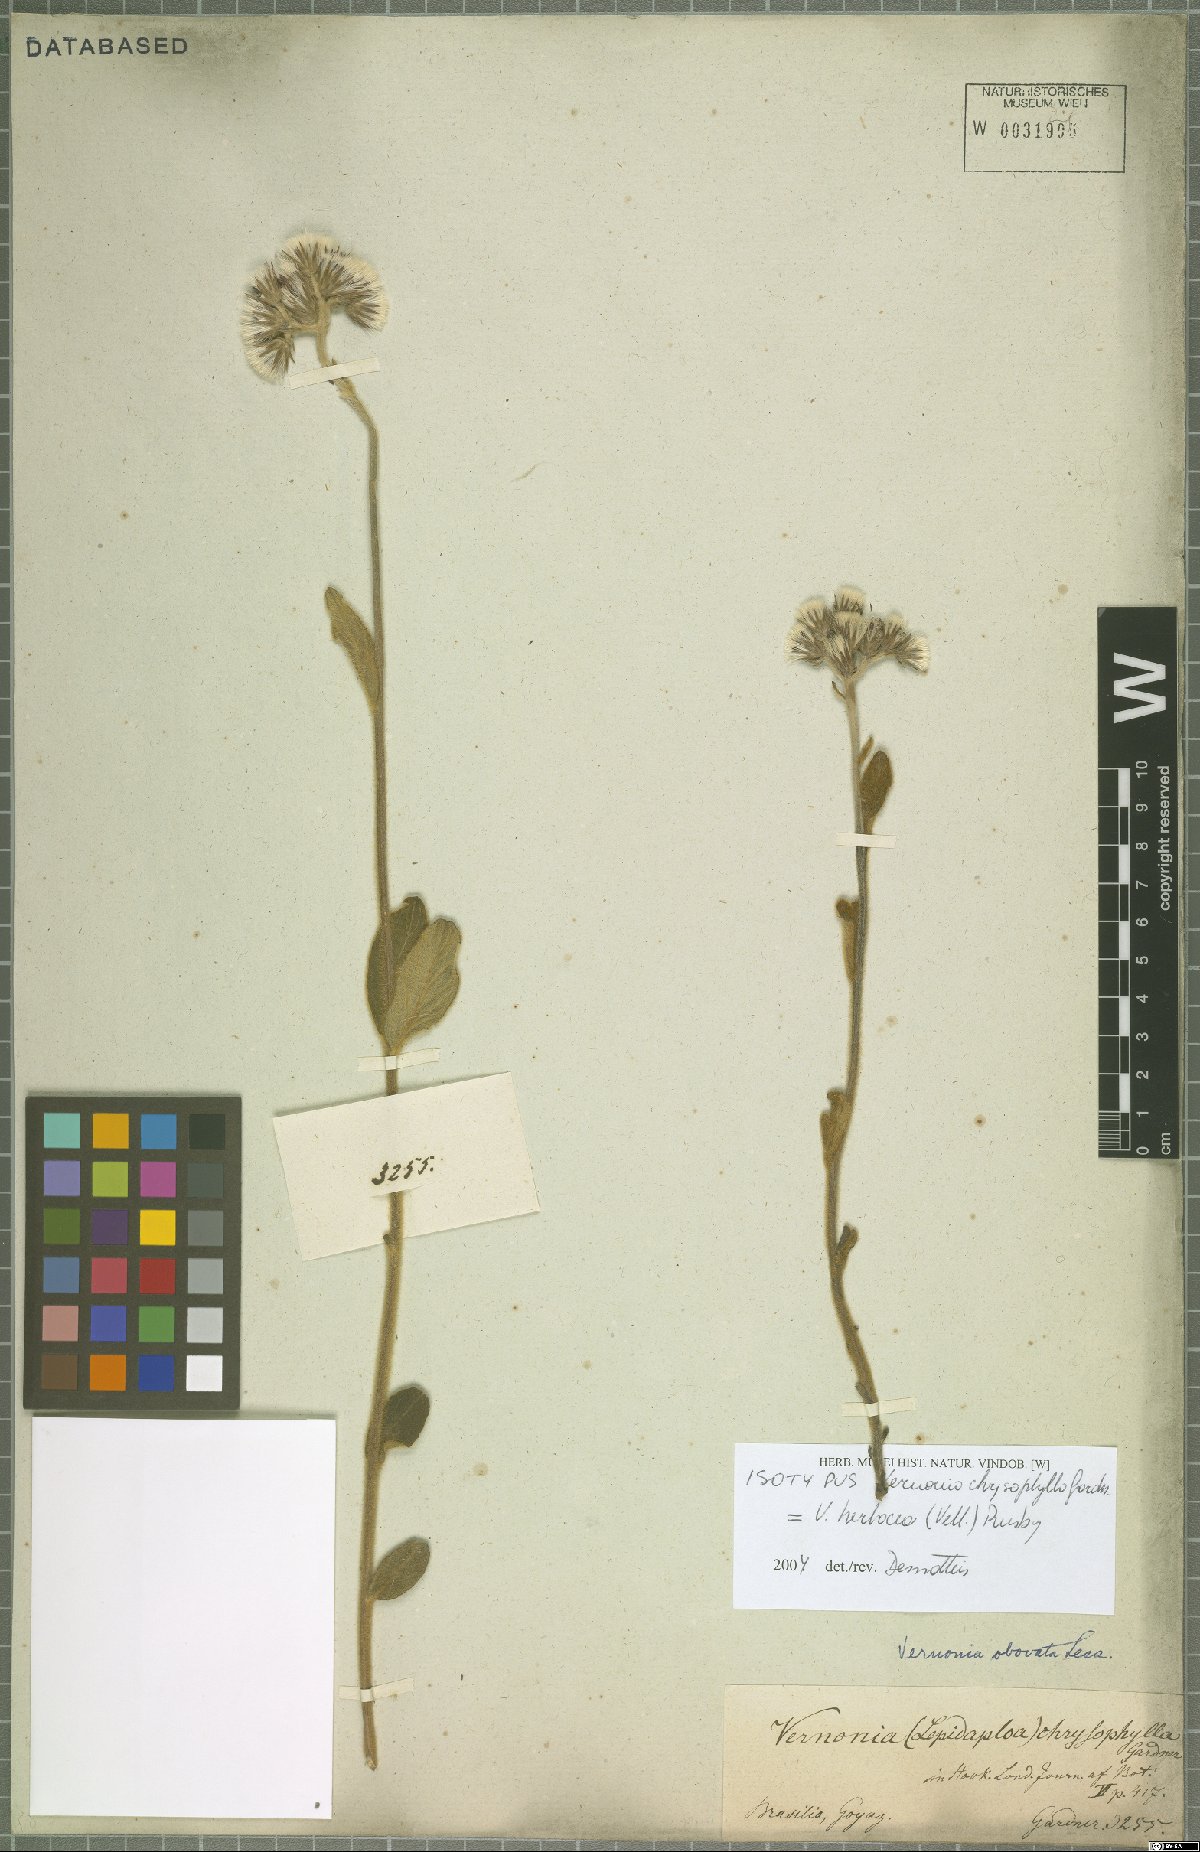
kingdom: Plantae
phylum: Tracheophyta
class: Magnoliopsida
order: Asterales
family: Asteraceae
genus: Chrysolaena
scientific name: Chrysolaena obovata
